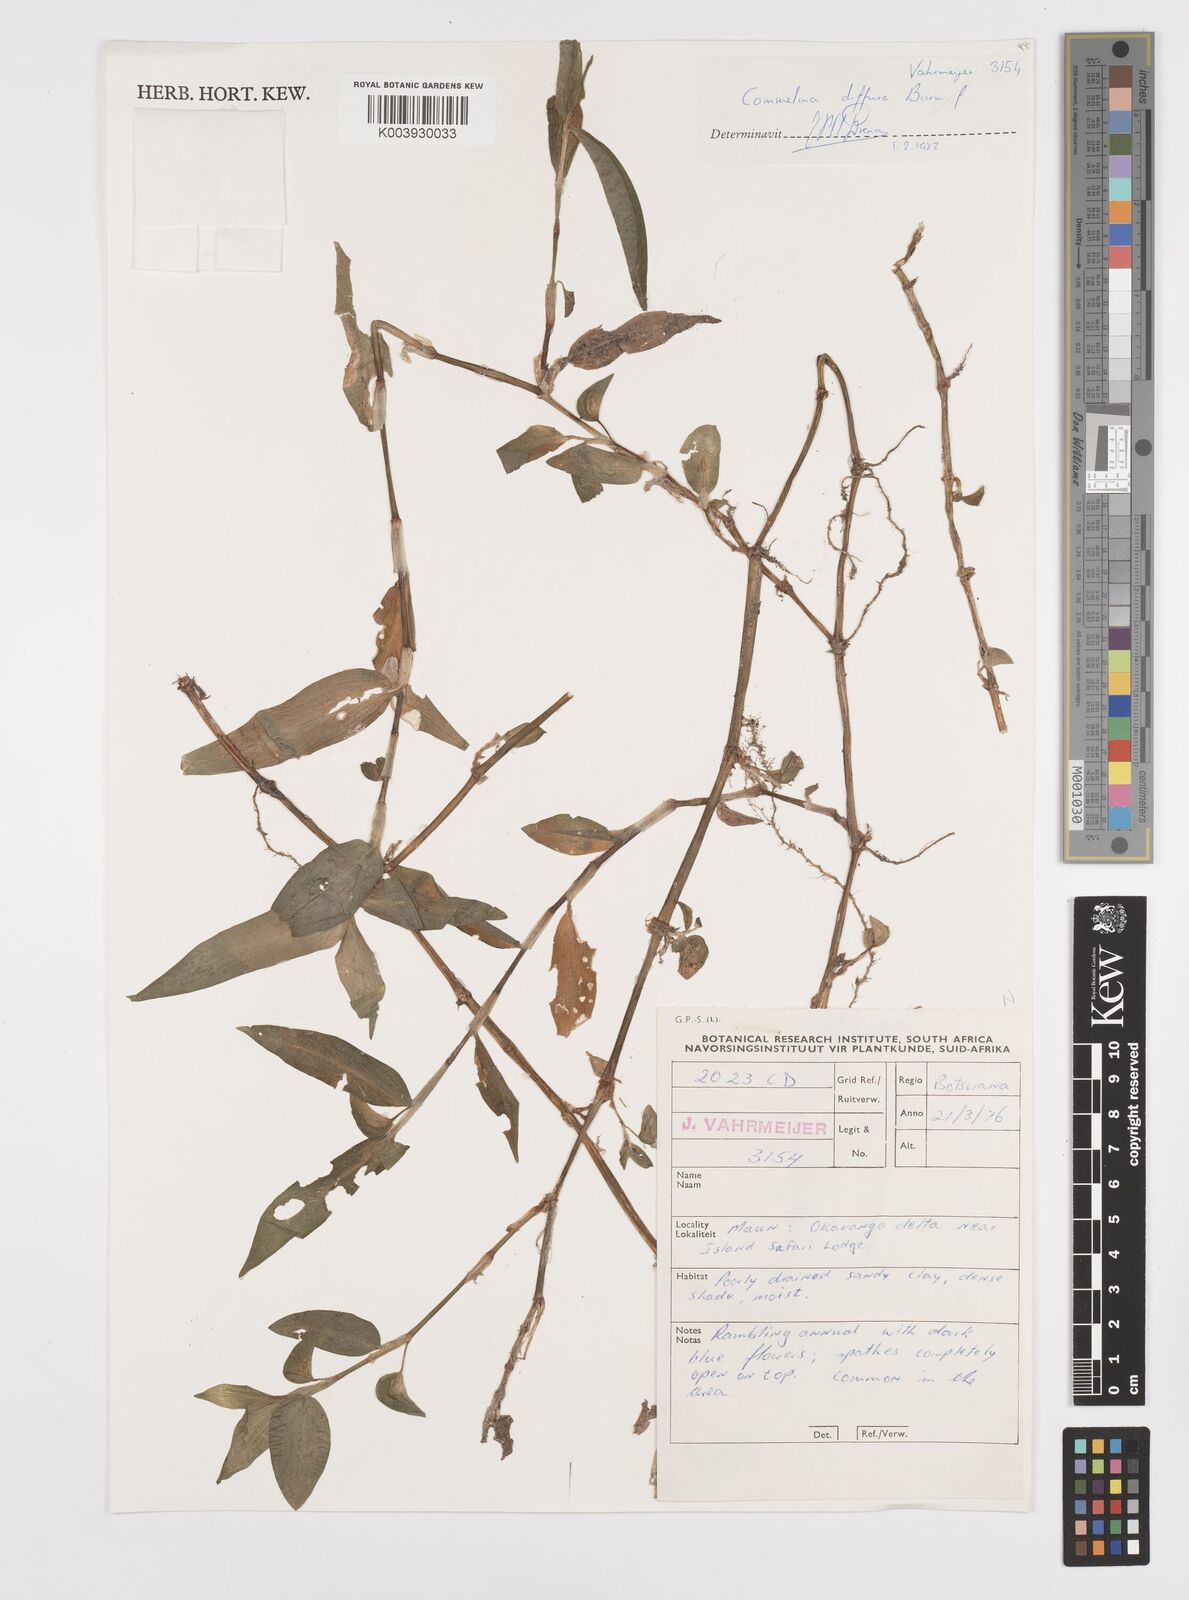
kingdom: Plantae
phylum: Tracheophyta
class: Liliopsida
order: Commelinales
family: Commelinaceae
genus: Commelina
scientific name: Commelina diffusa
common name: Climbing dayflower
